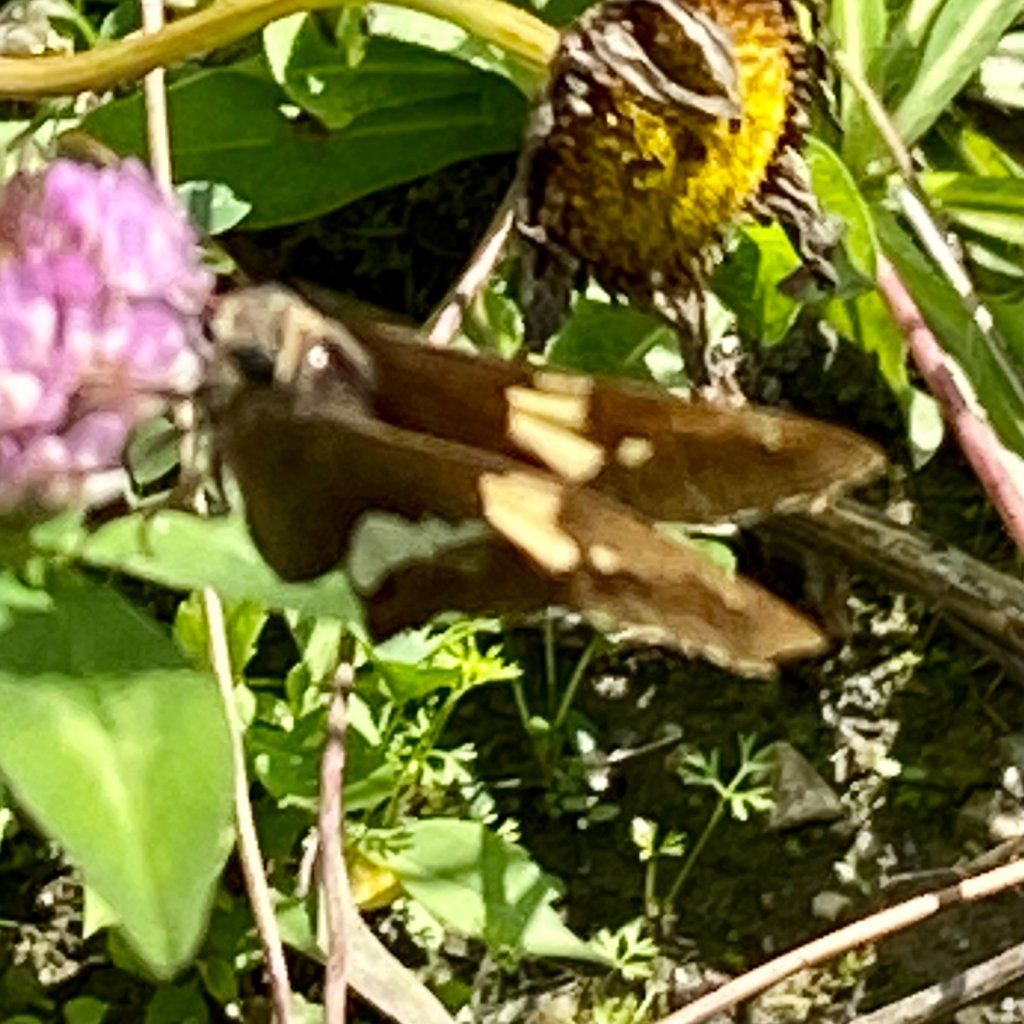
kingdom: Animalia
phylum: Arthropoda
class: Insecta
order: Lepidoptera
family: Hesperiidae
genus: Epargyreus
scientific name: Epargyreus clarus
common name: Silver-spotted Skipper
